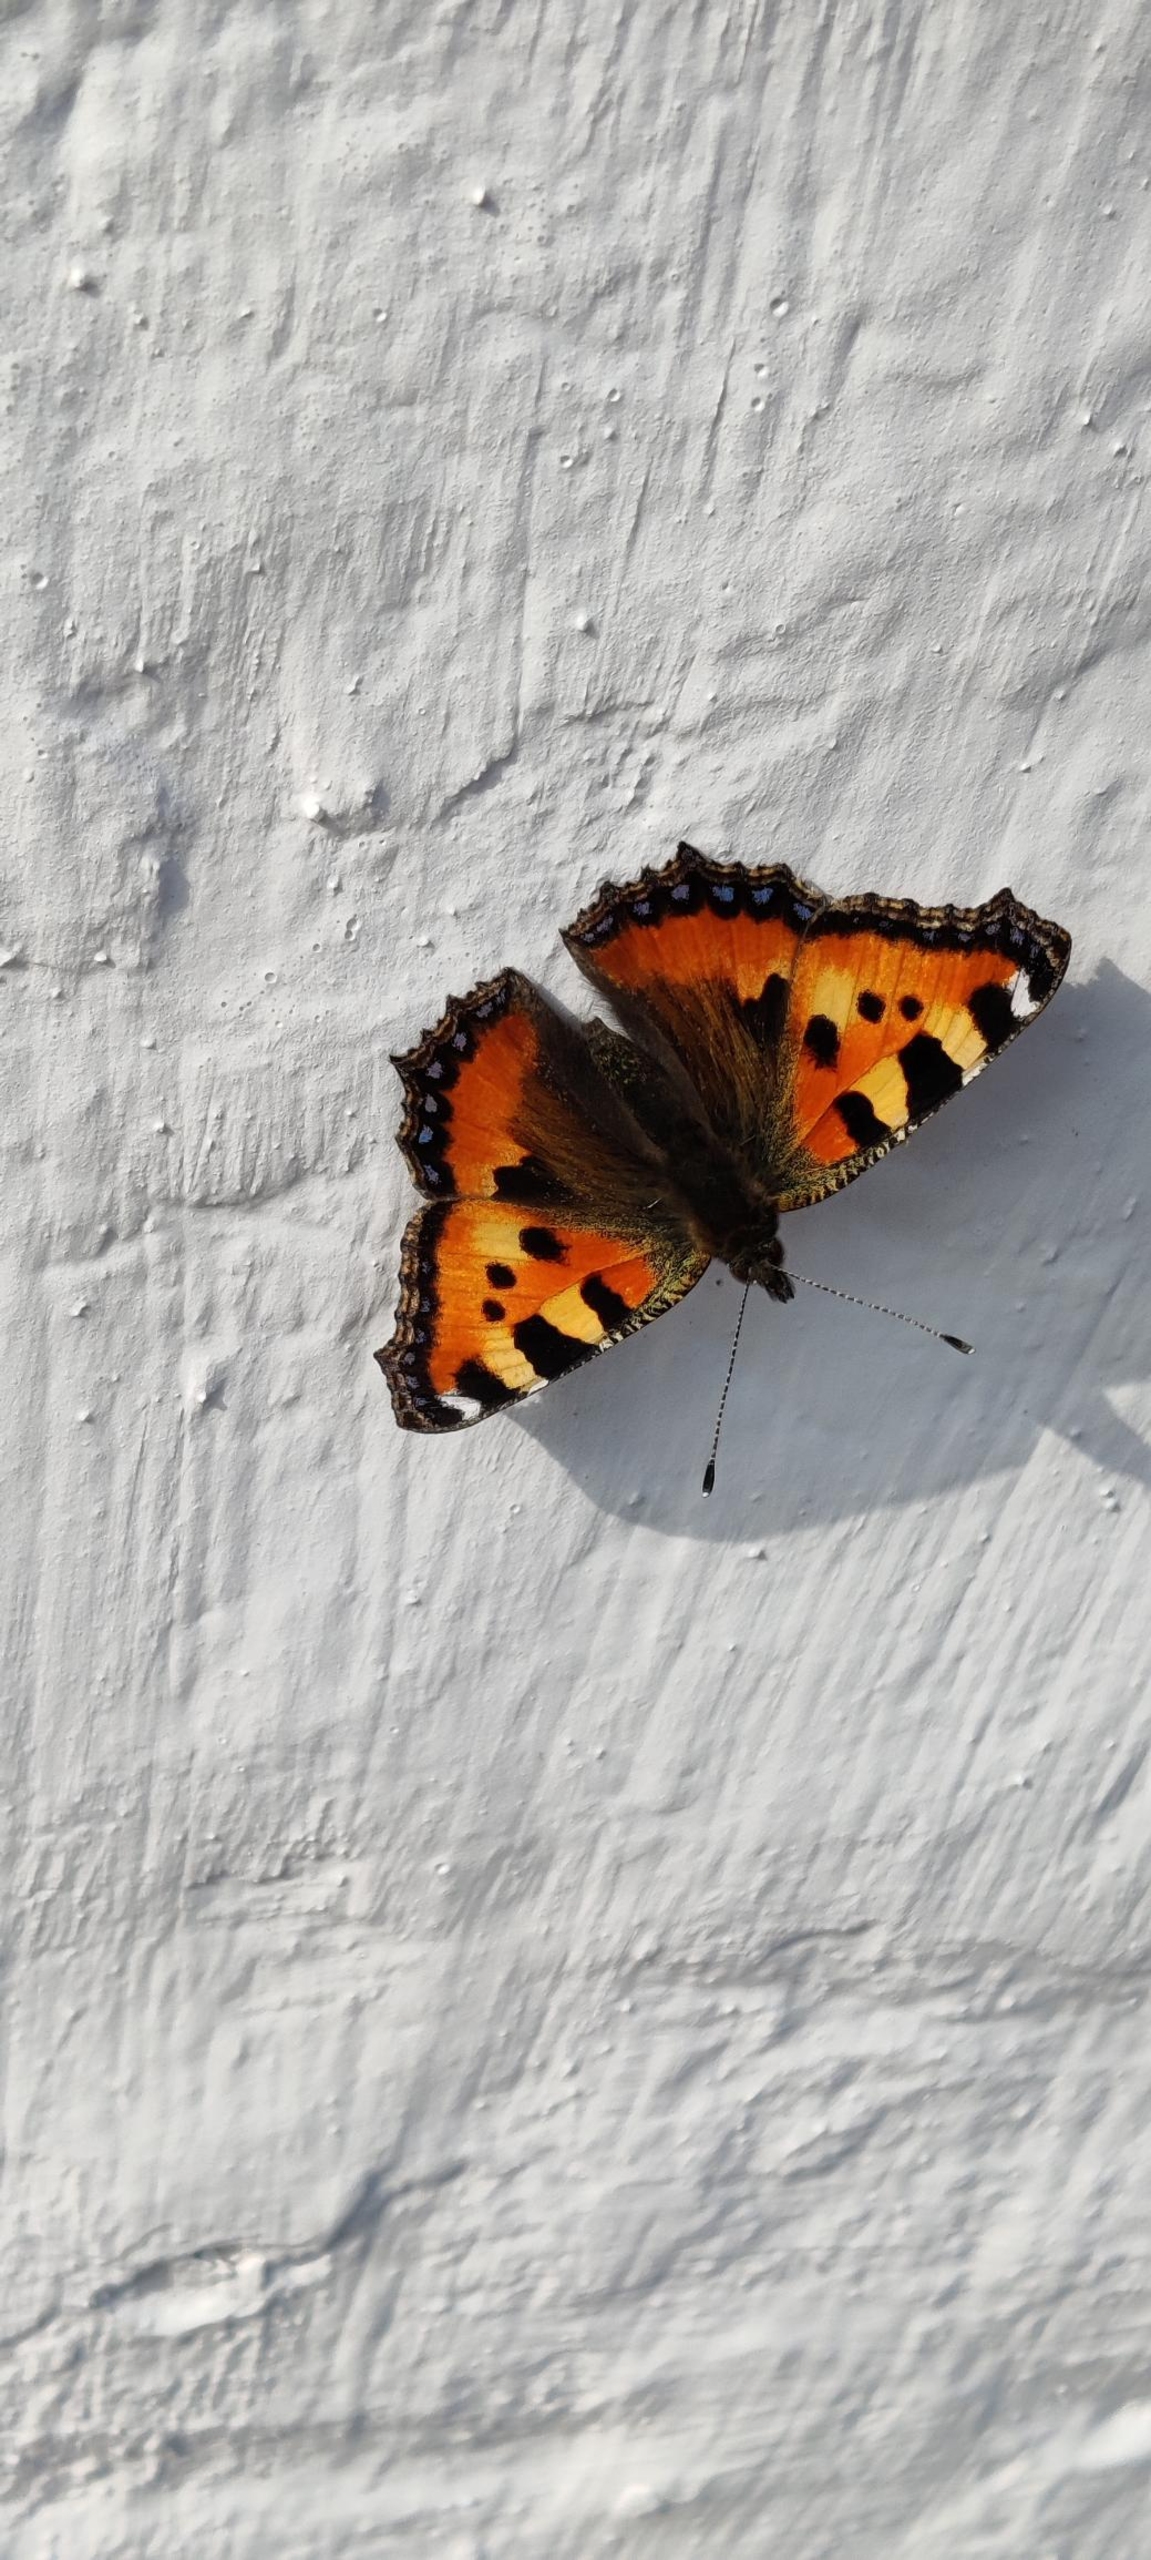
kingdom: Animalia
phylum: Arthropoda
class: Insecta
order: Lepidoptera
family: Nymphalidae
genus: Aglais
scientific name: Aglais urticae
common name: Nældens takvinge
